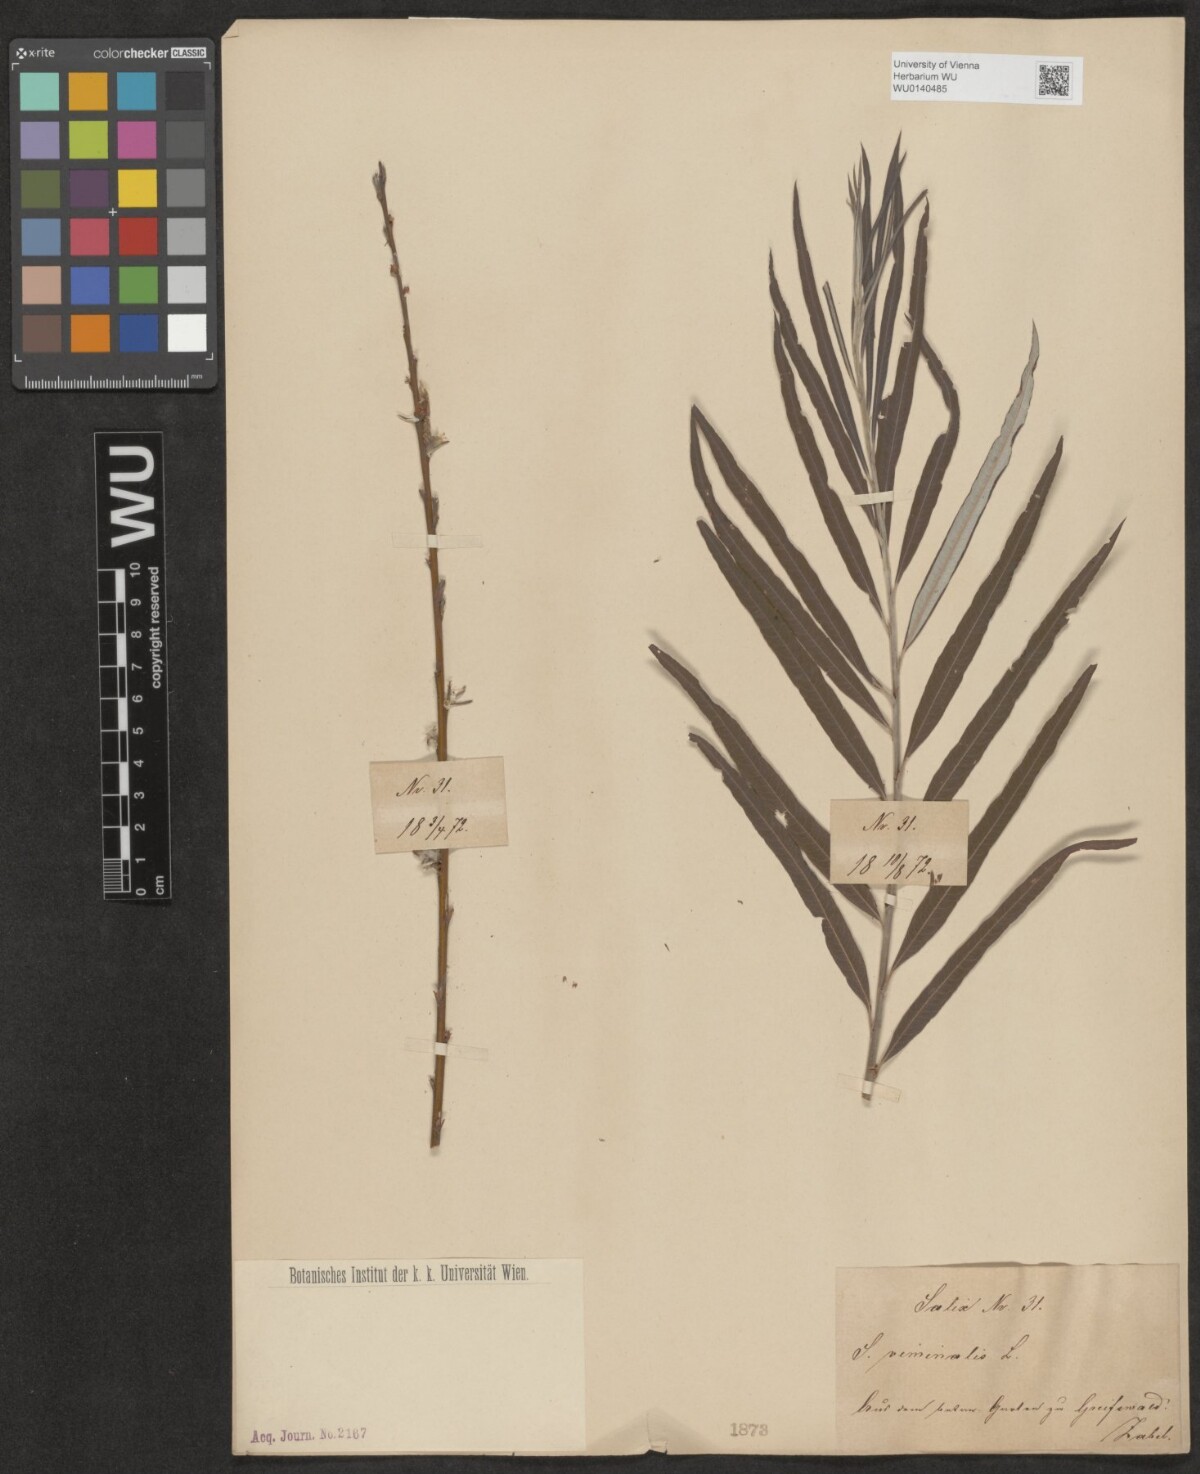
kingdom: Plantae
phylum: Tracheophyta
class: Magnoliopsida
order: Malpighiales
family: Salicaceae
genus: Salix
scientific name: Salix viminalis
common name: Osier
